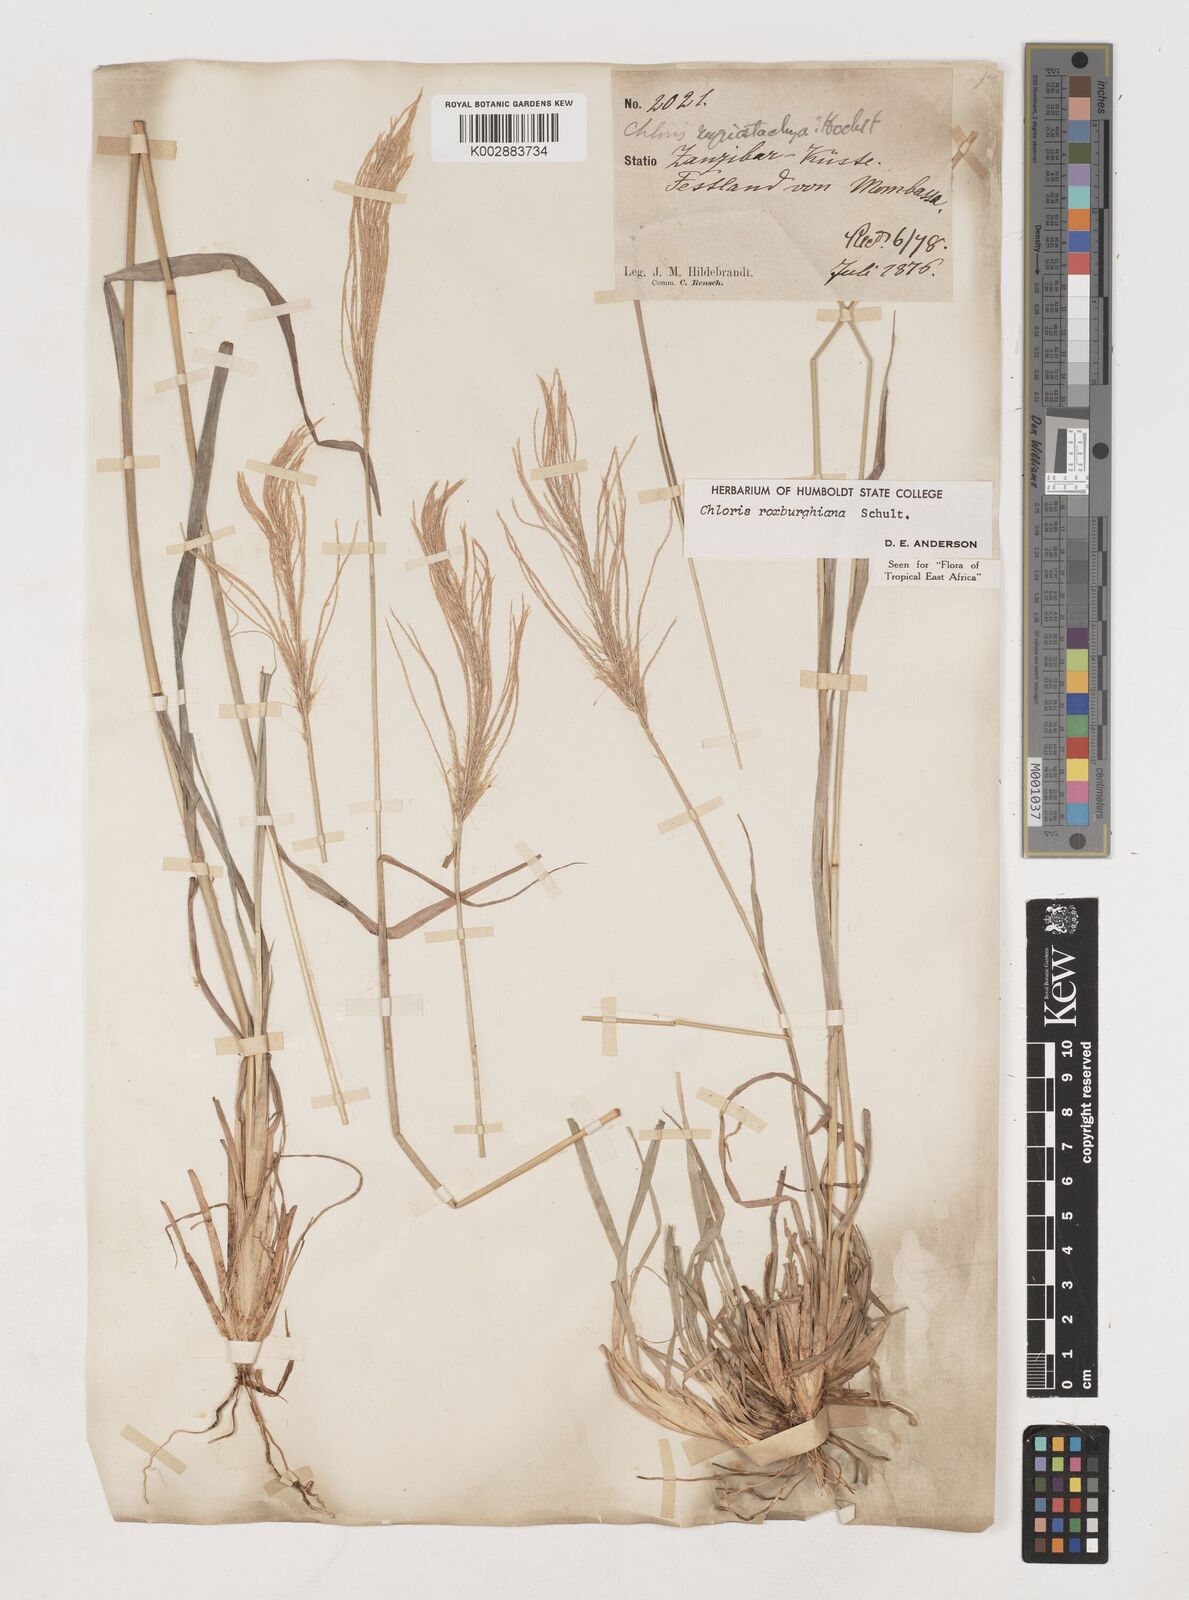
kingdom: Plantae
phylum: Tracheophyta
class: Liliopsida
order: Poales
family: Poaceae
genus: Tetrapogon
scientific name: Tetrapogon roxburghiana
